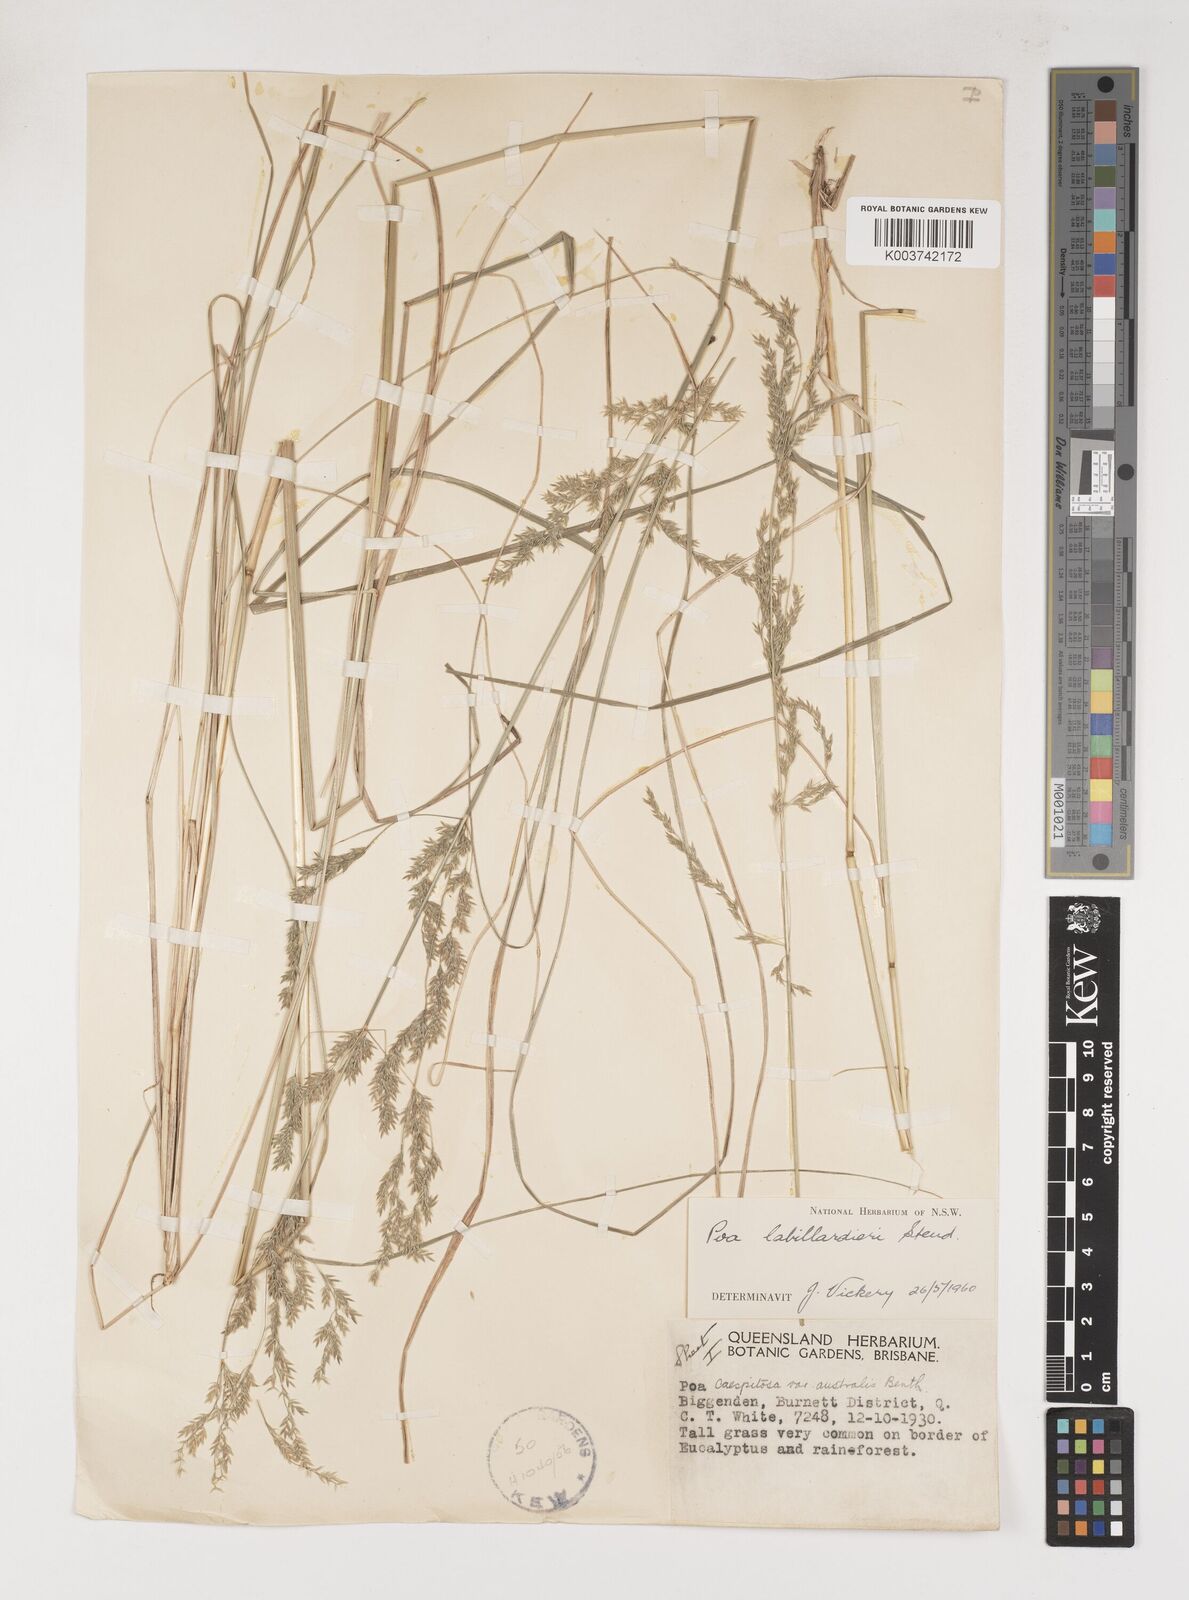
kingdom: Plantae
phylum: Tracheophyta
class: Liliopsida
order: Poales
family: Poaceae
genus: Poa
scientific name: Poa labillardierei
